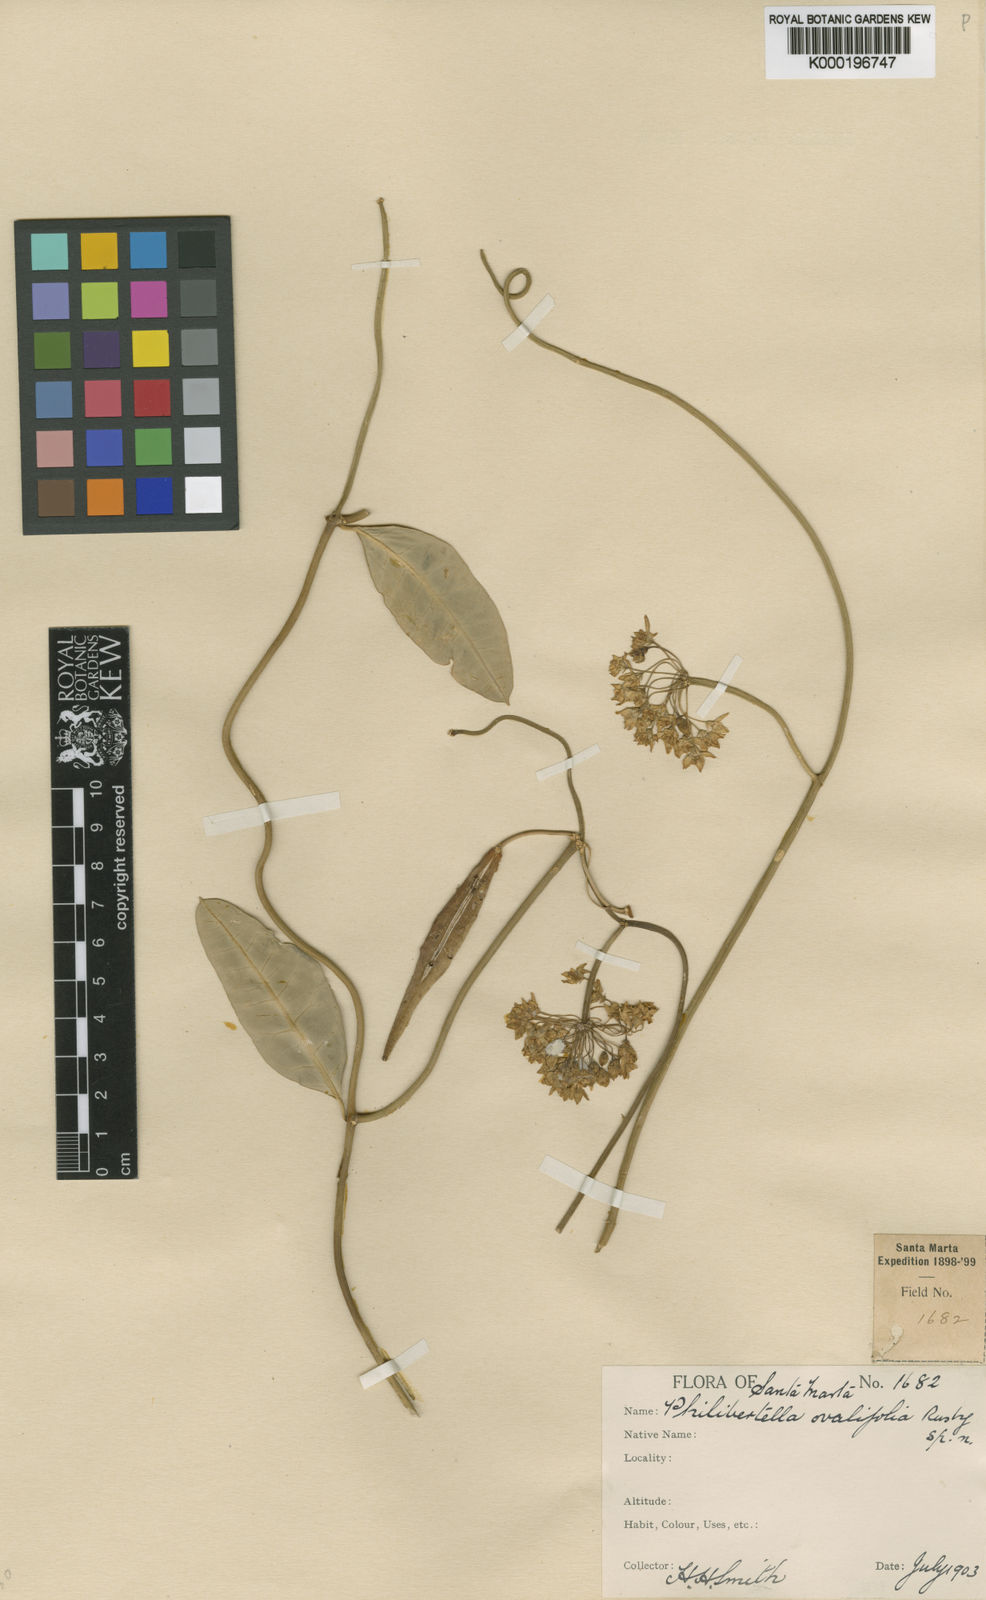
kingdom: Plantae
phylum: Tracheophyta
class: Magnoliopsida
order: Gentianales
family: Apocynaceae
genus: Funastrum
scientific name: Funastrum glaucum
